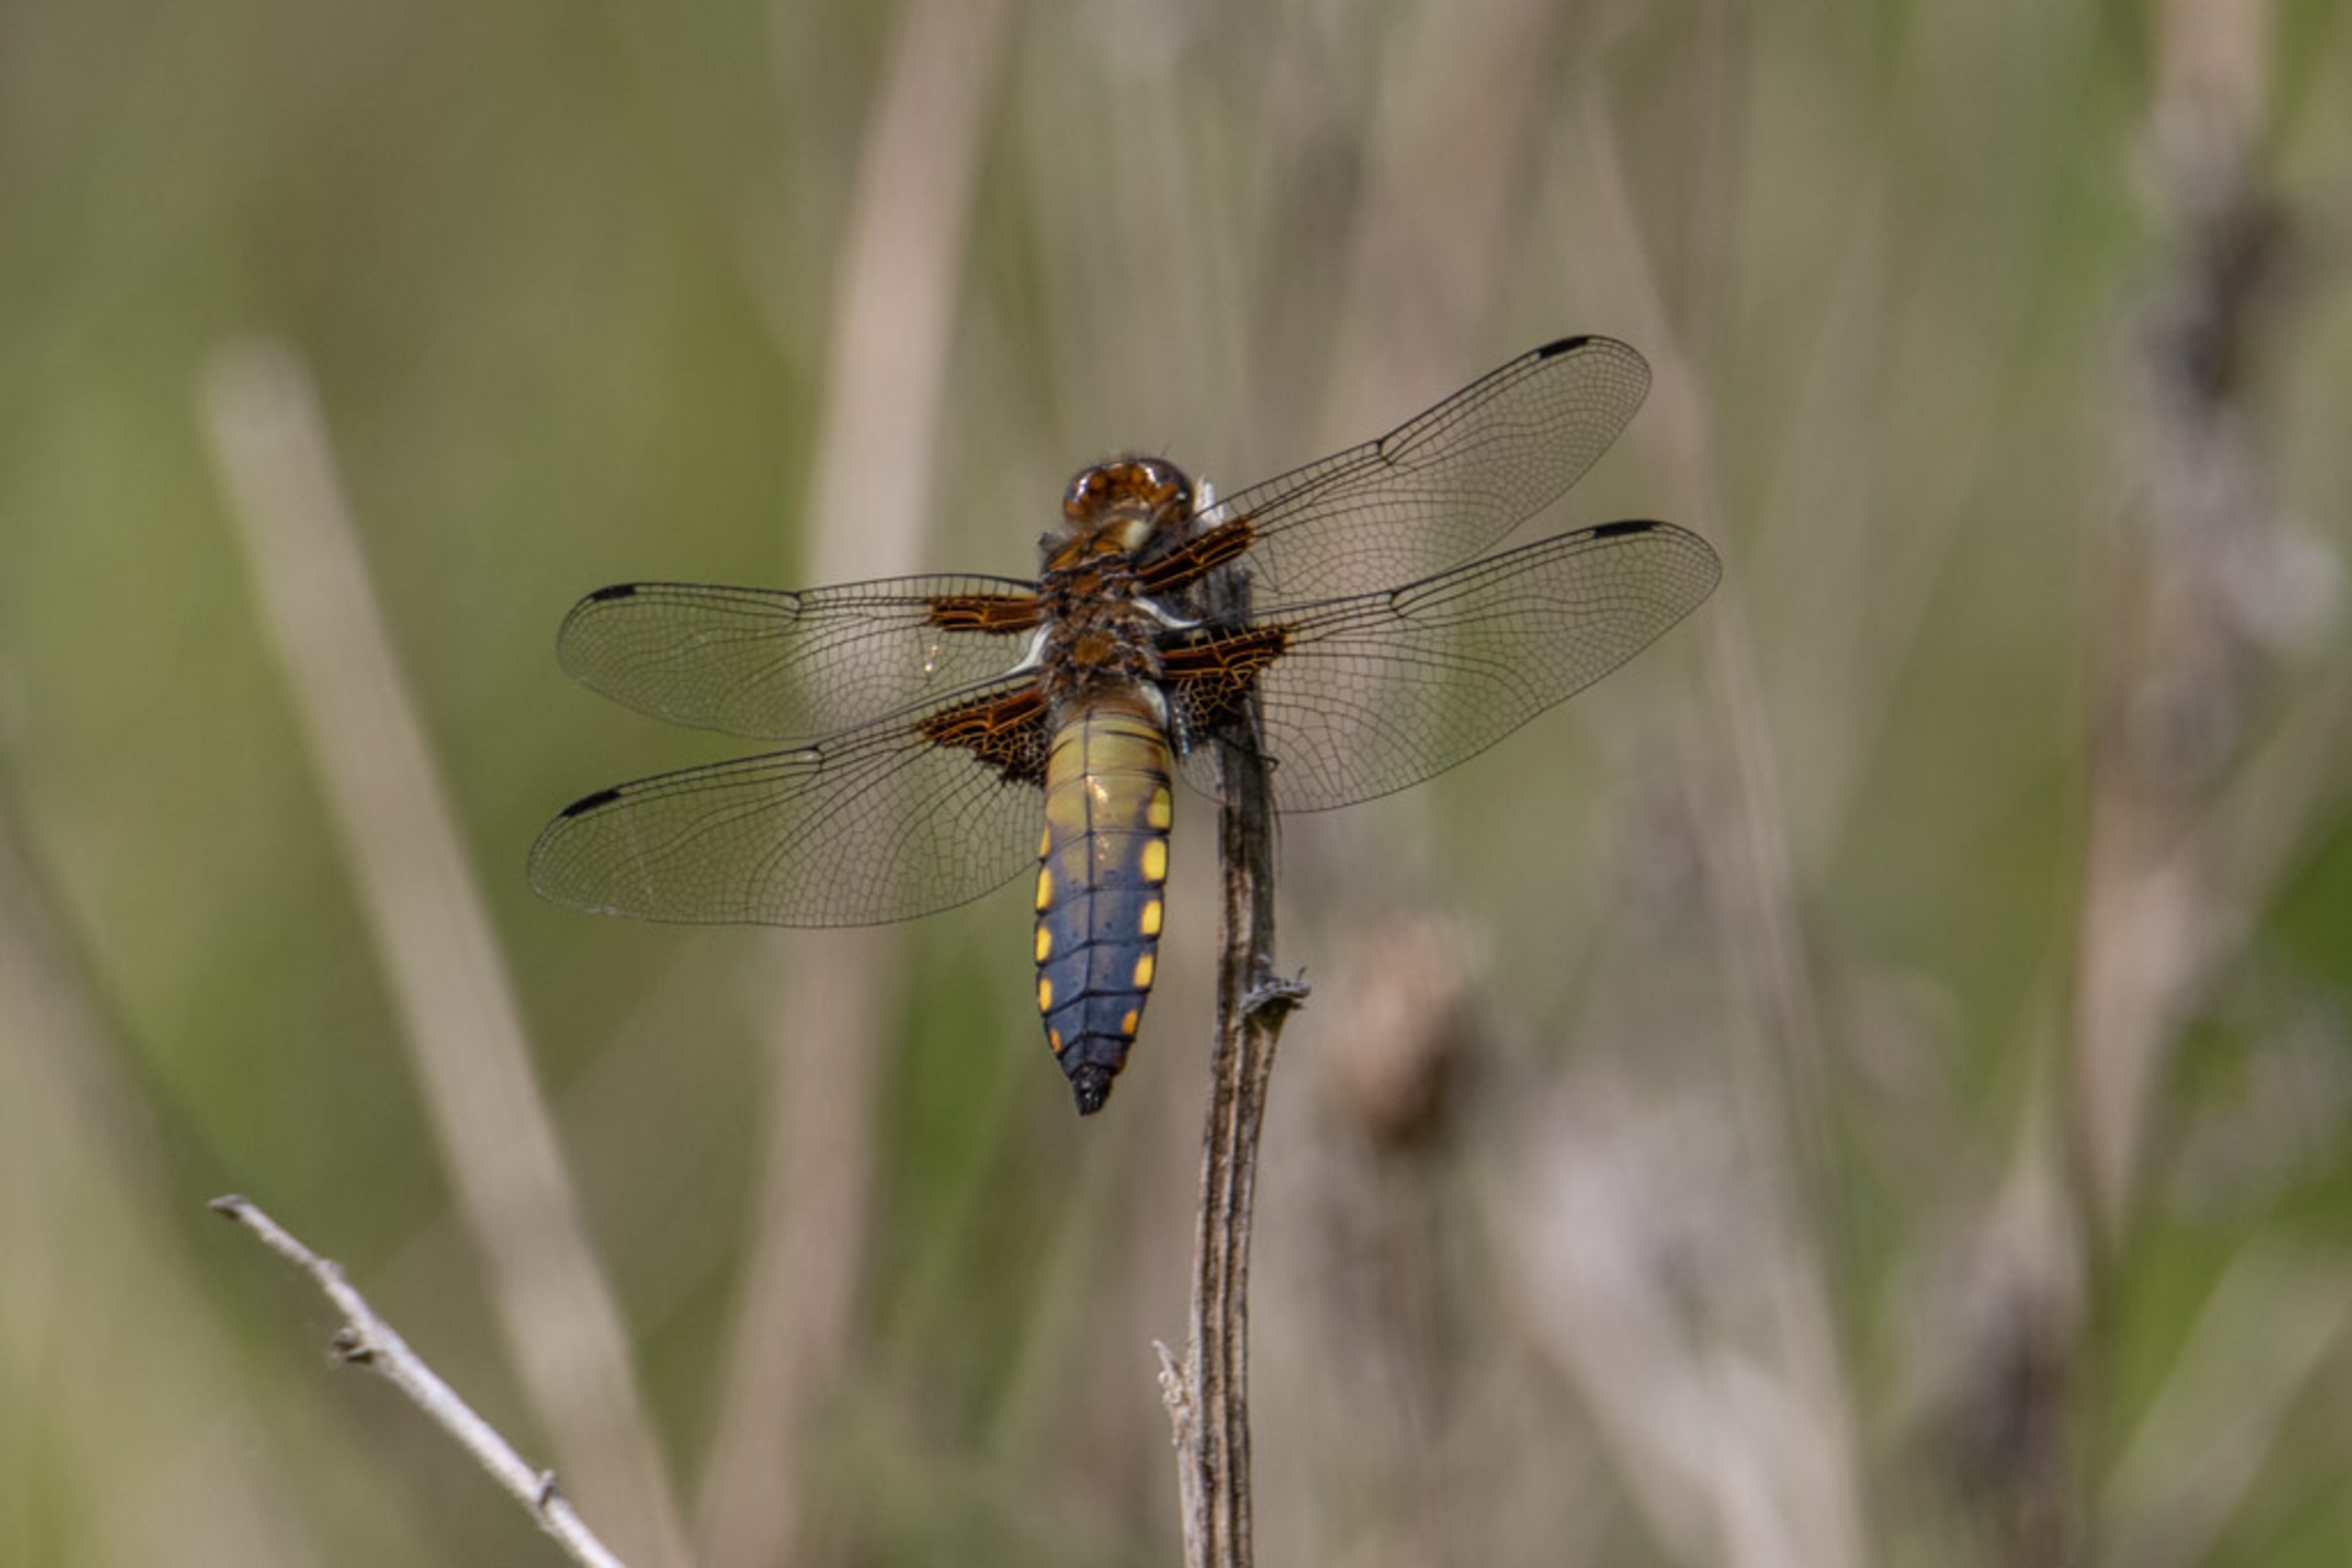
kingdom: Animalia
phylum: Arthropoda
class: Insecta
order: Odonata
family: Libellulidae
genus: Libellula
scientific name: Libellula depressa
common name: Blå libel
